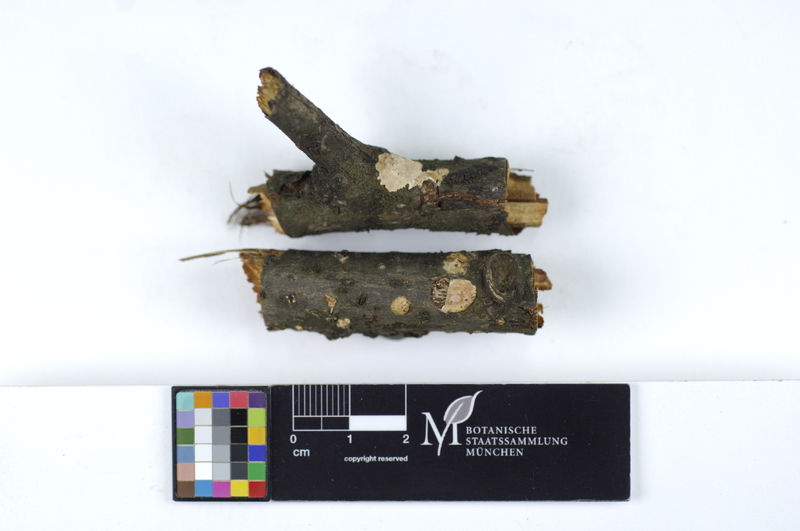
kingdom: Plantae
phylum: Tracheophyta
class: Magnoliopsida
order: Malpighiales
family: Salicaceae
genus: Populus
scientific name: Populus
